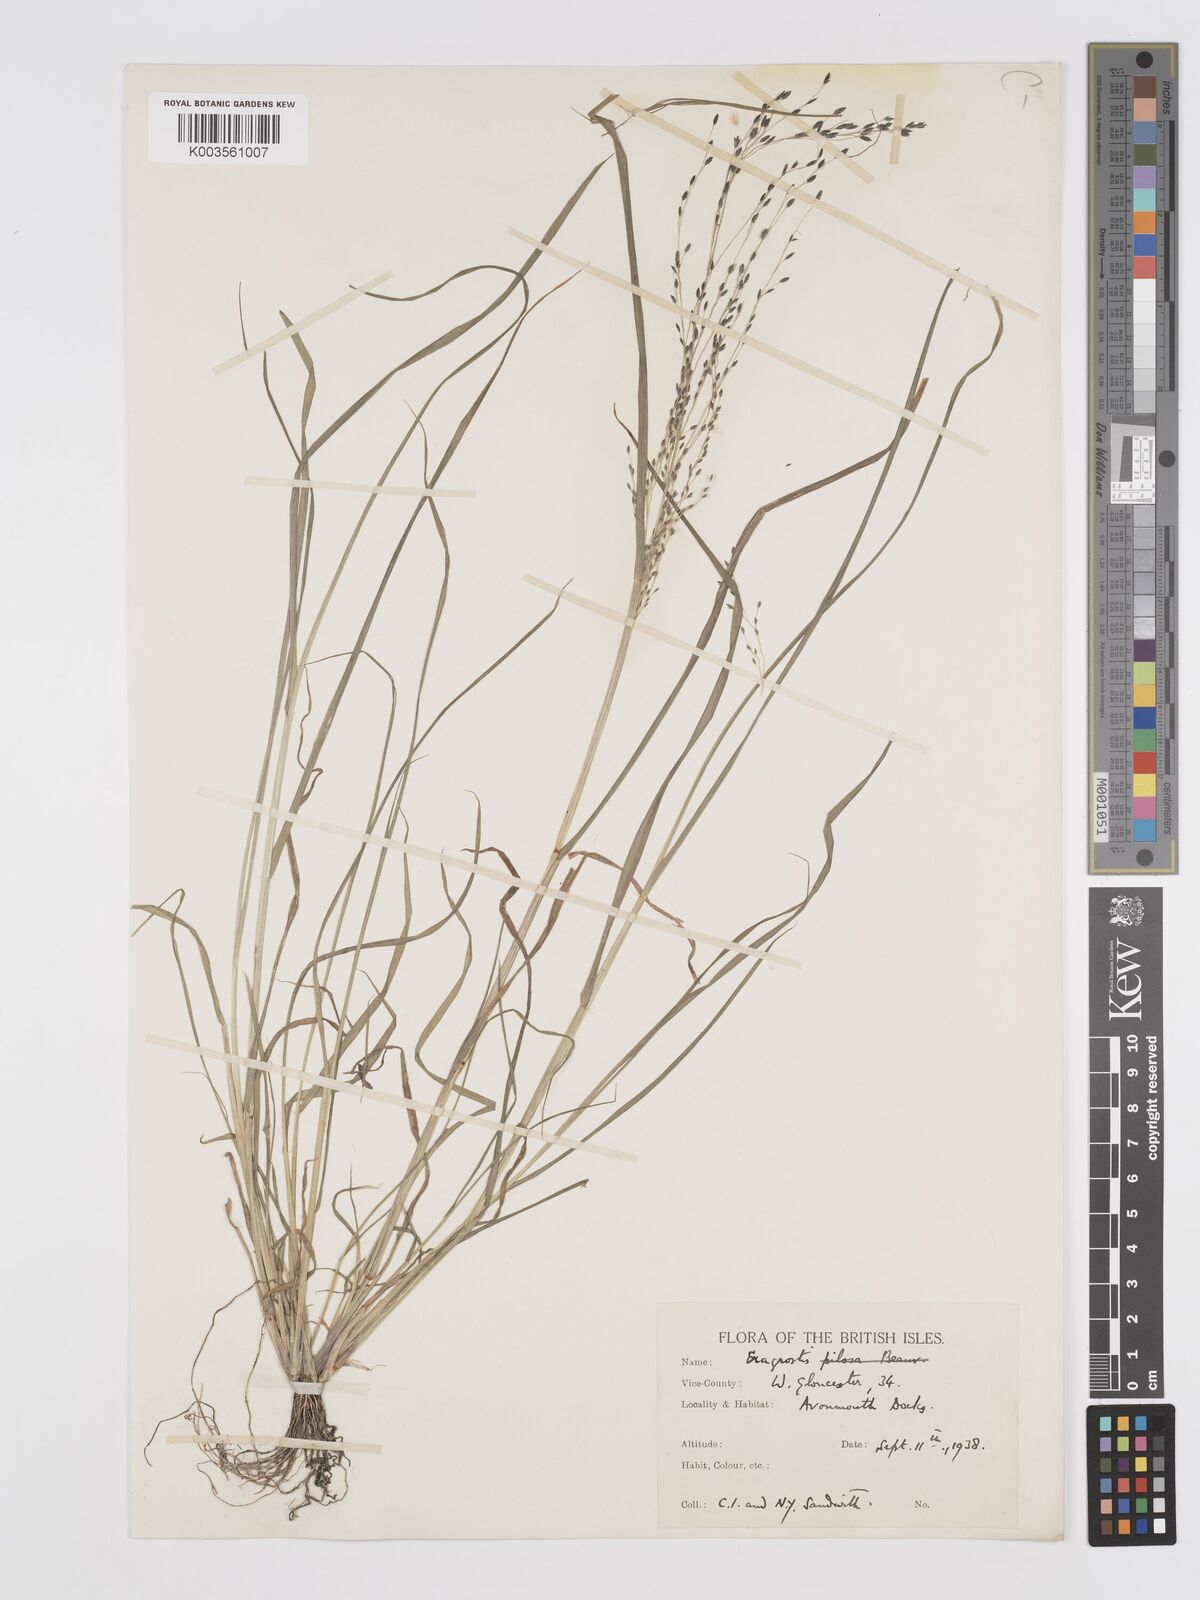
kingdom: Plantae
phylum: Tracheophyta
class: Liliopsida
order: Poales
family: Poaceae
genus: Eragrostis
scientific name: Eragrostis
